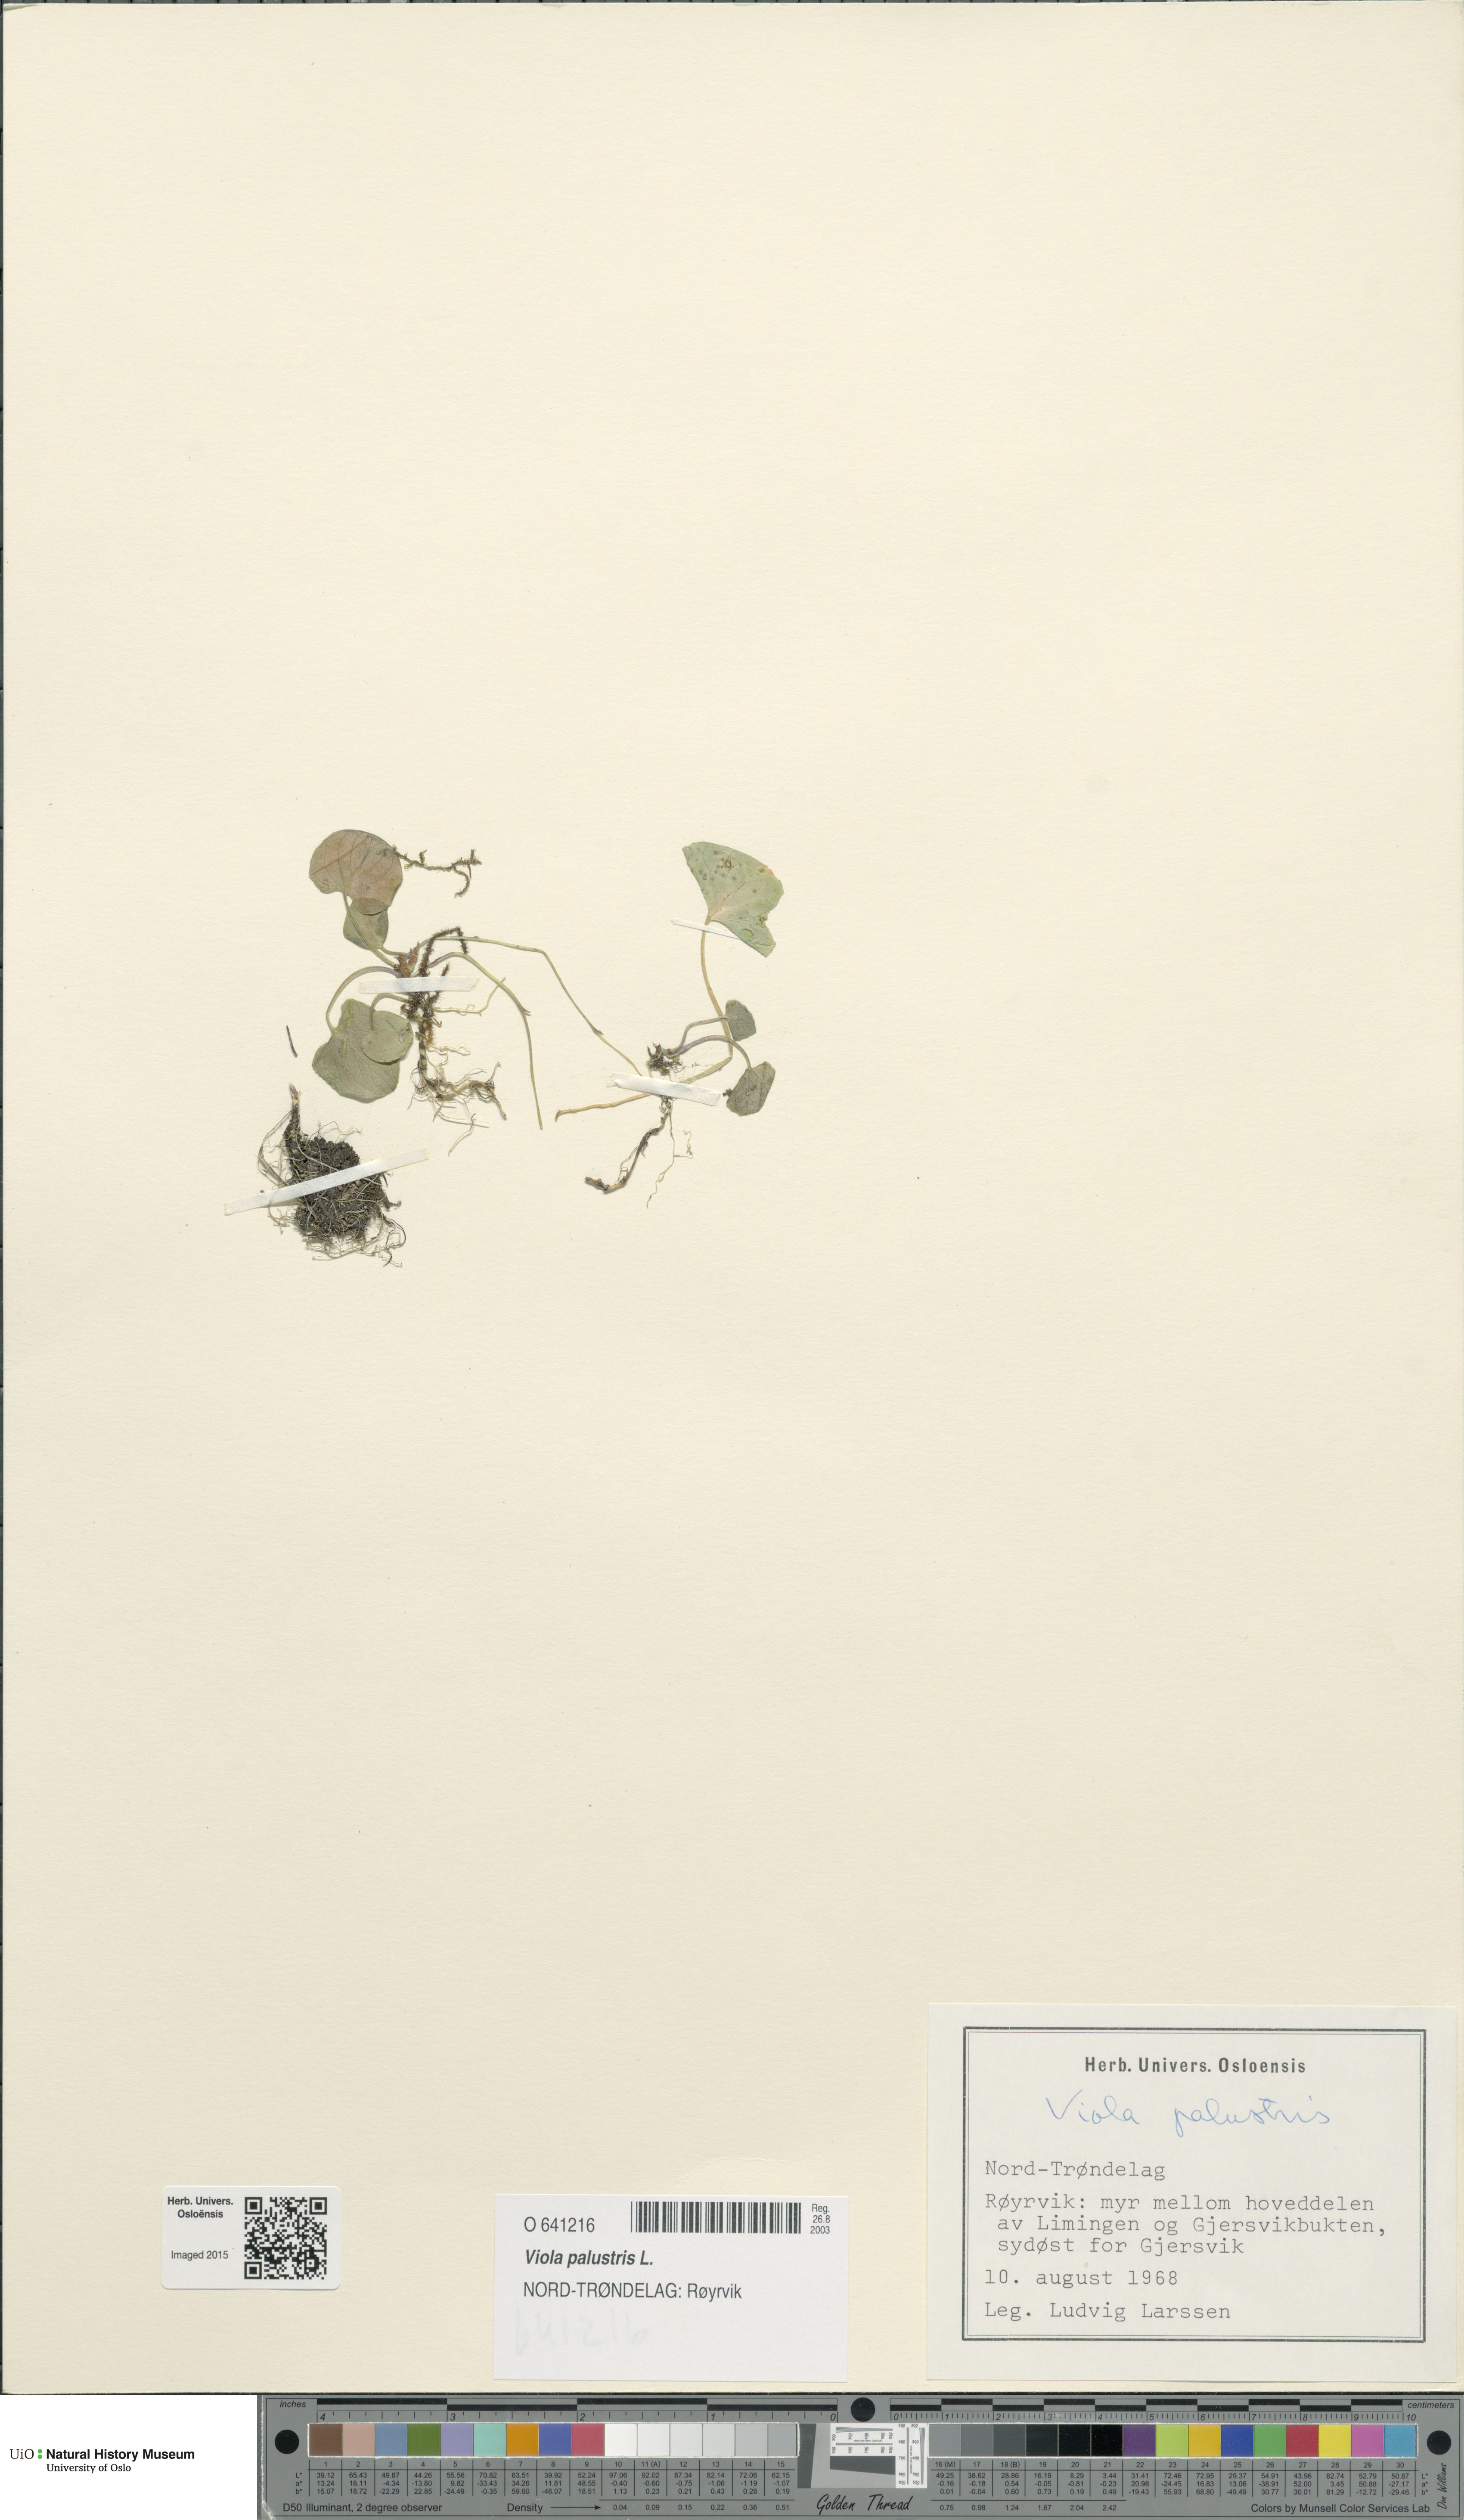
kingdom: Plantae
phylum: Tracheophyta
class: Magnoliopsida
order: Malpighiales
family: Violaceae
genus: Viola
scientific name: Viola palustris
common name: Marsh violet
